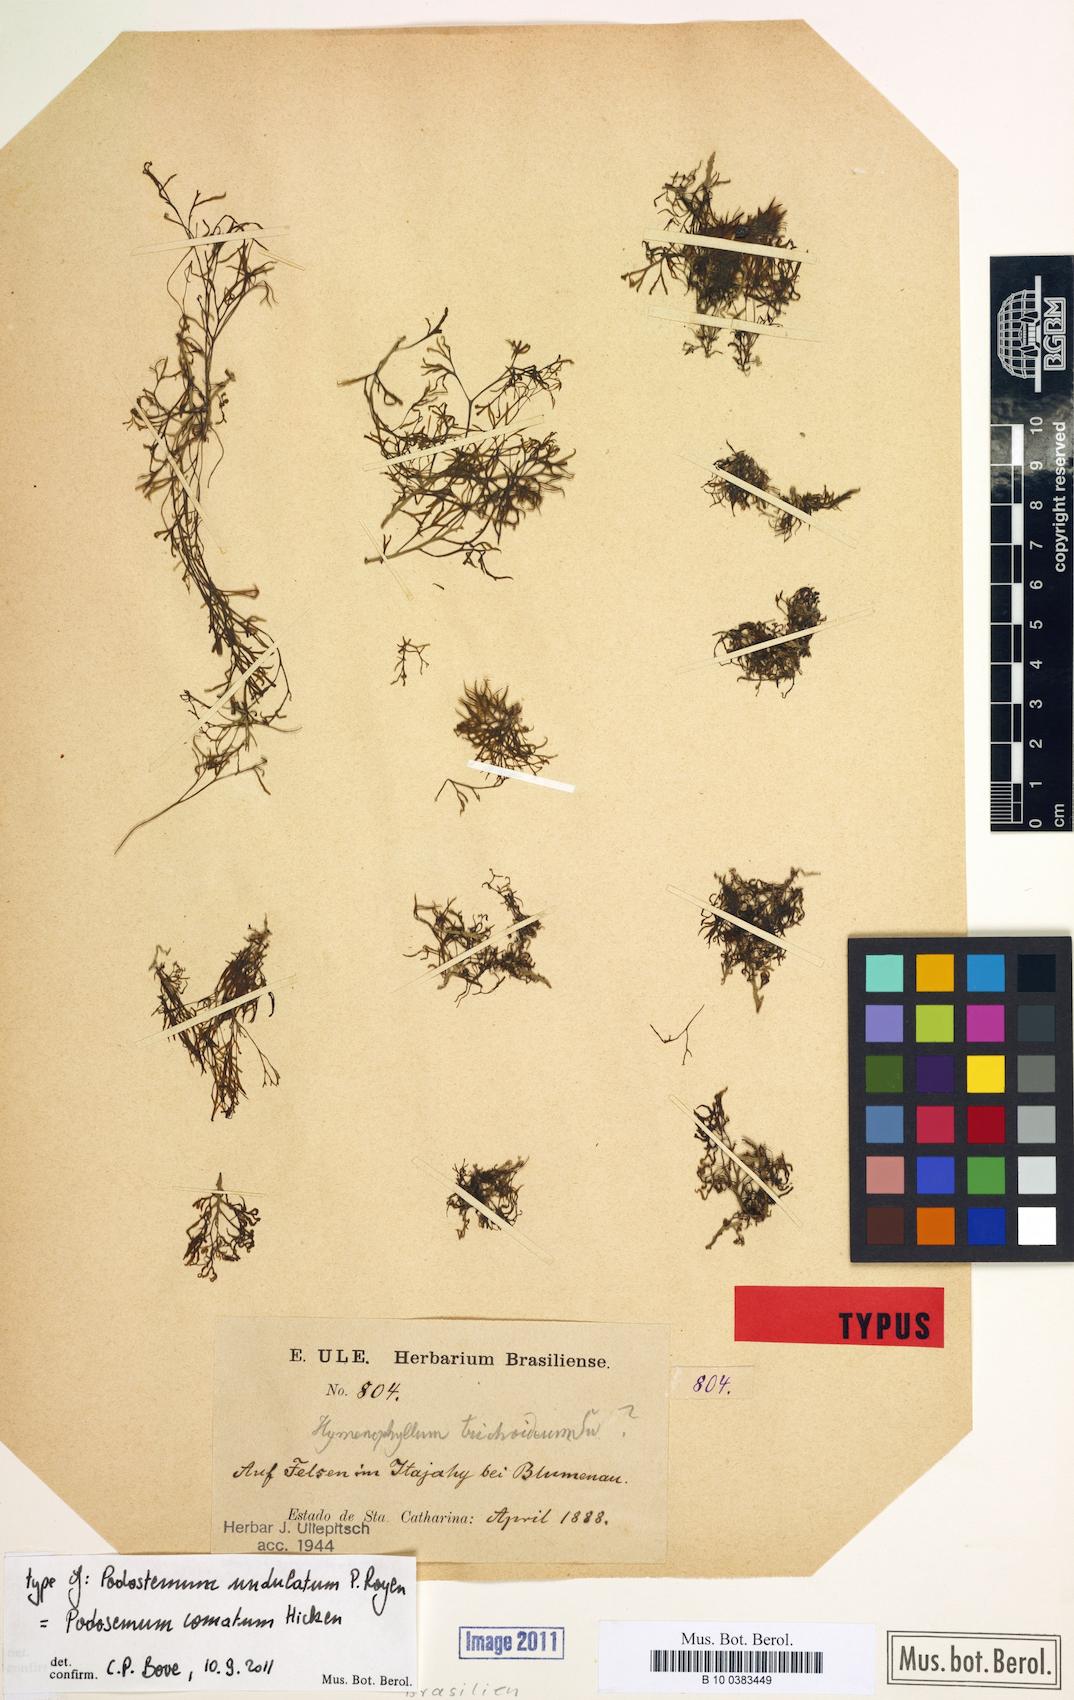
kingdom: Plantae
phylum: Tracheophyta
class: Magnoliopsida
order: Malpighiales
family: Podostemaceae
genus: Podostemum
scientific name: Podostemum comatum
